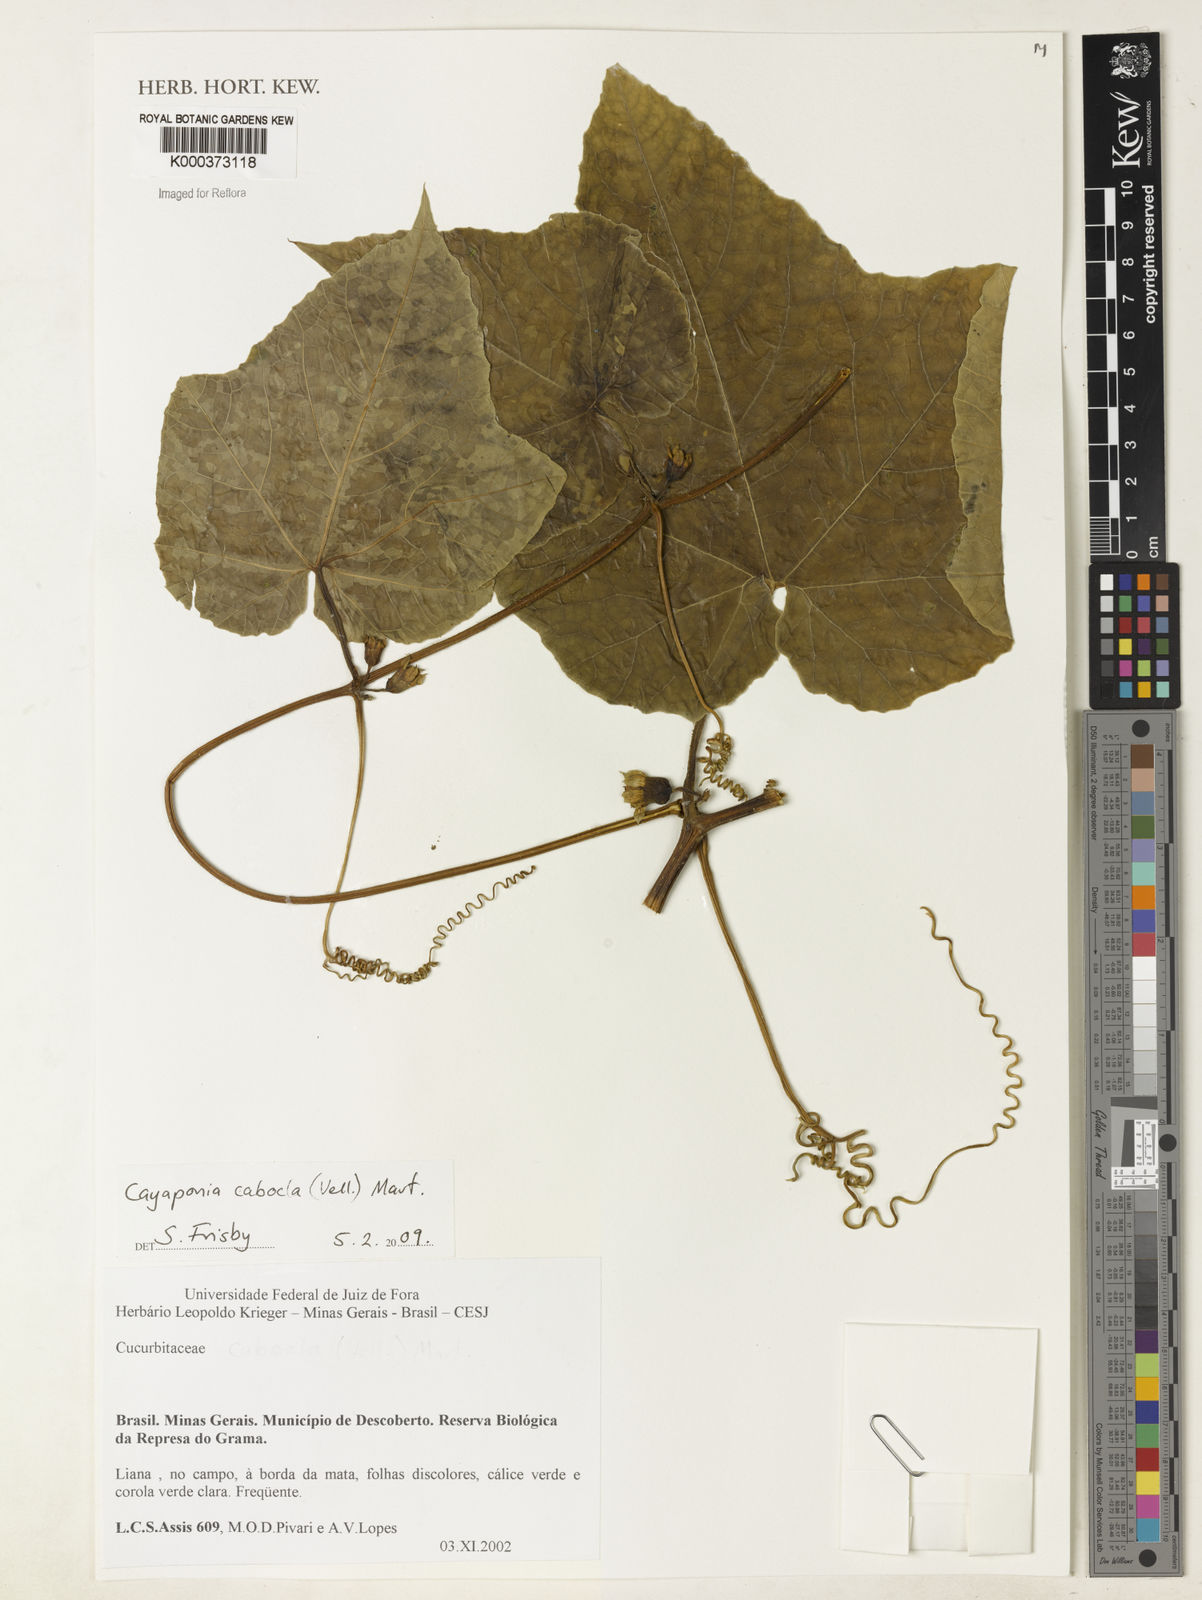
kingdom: Plantae
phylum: Tracheophyta
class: Magnoliopsida
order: Cucurbitales
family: Cucurbitaceae
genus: Cayaponia
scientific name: Cayaponia cabocla
